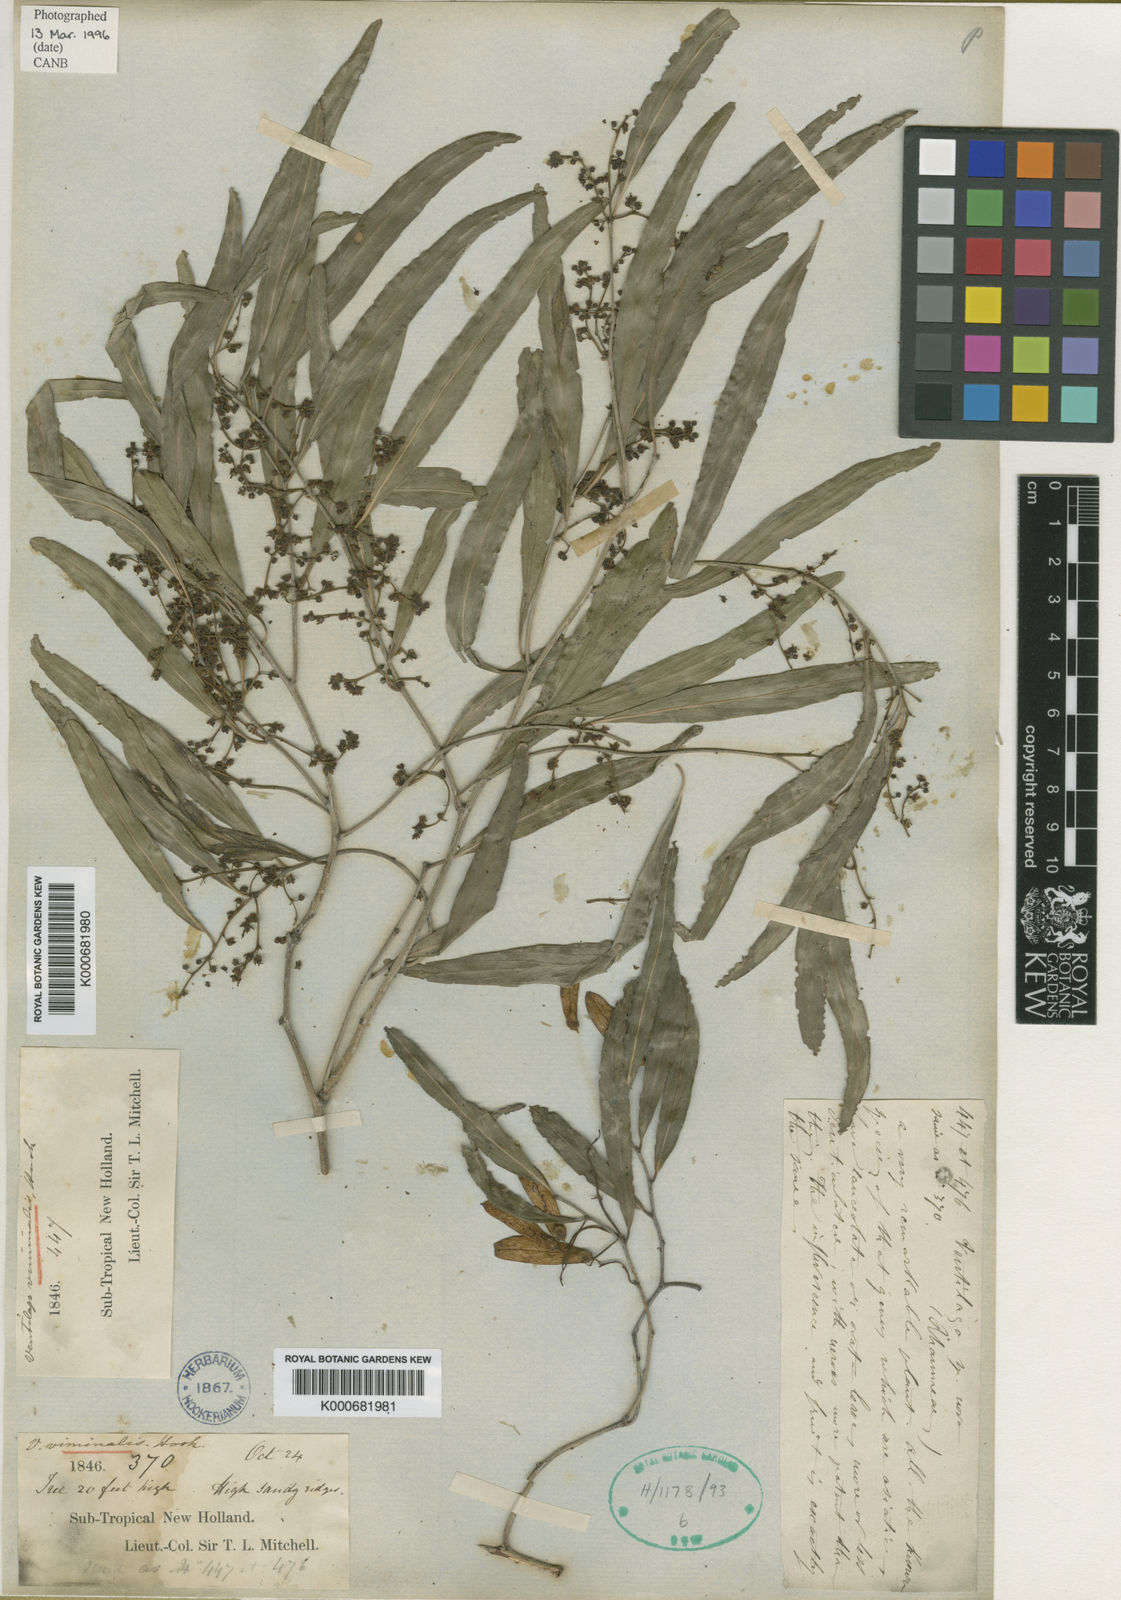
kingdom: Plantae
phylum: Tracheophyta
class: Magnoliopsida
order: Rosales
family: Rhamnaceae
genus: Ventilago
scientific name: Ventilago viminalis
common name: Medicine-bark
